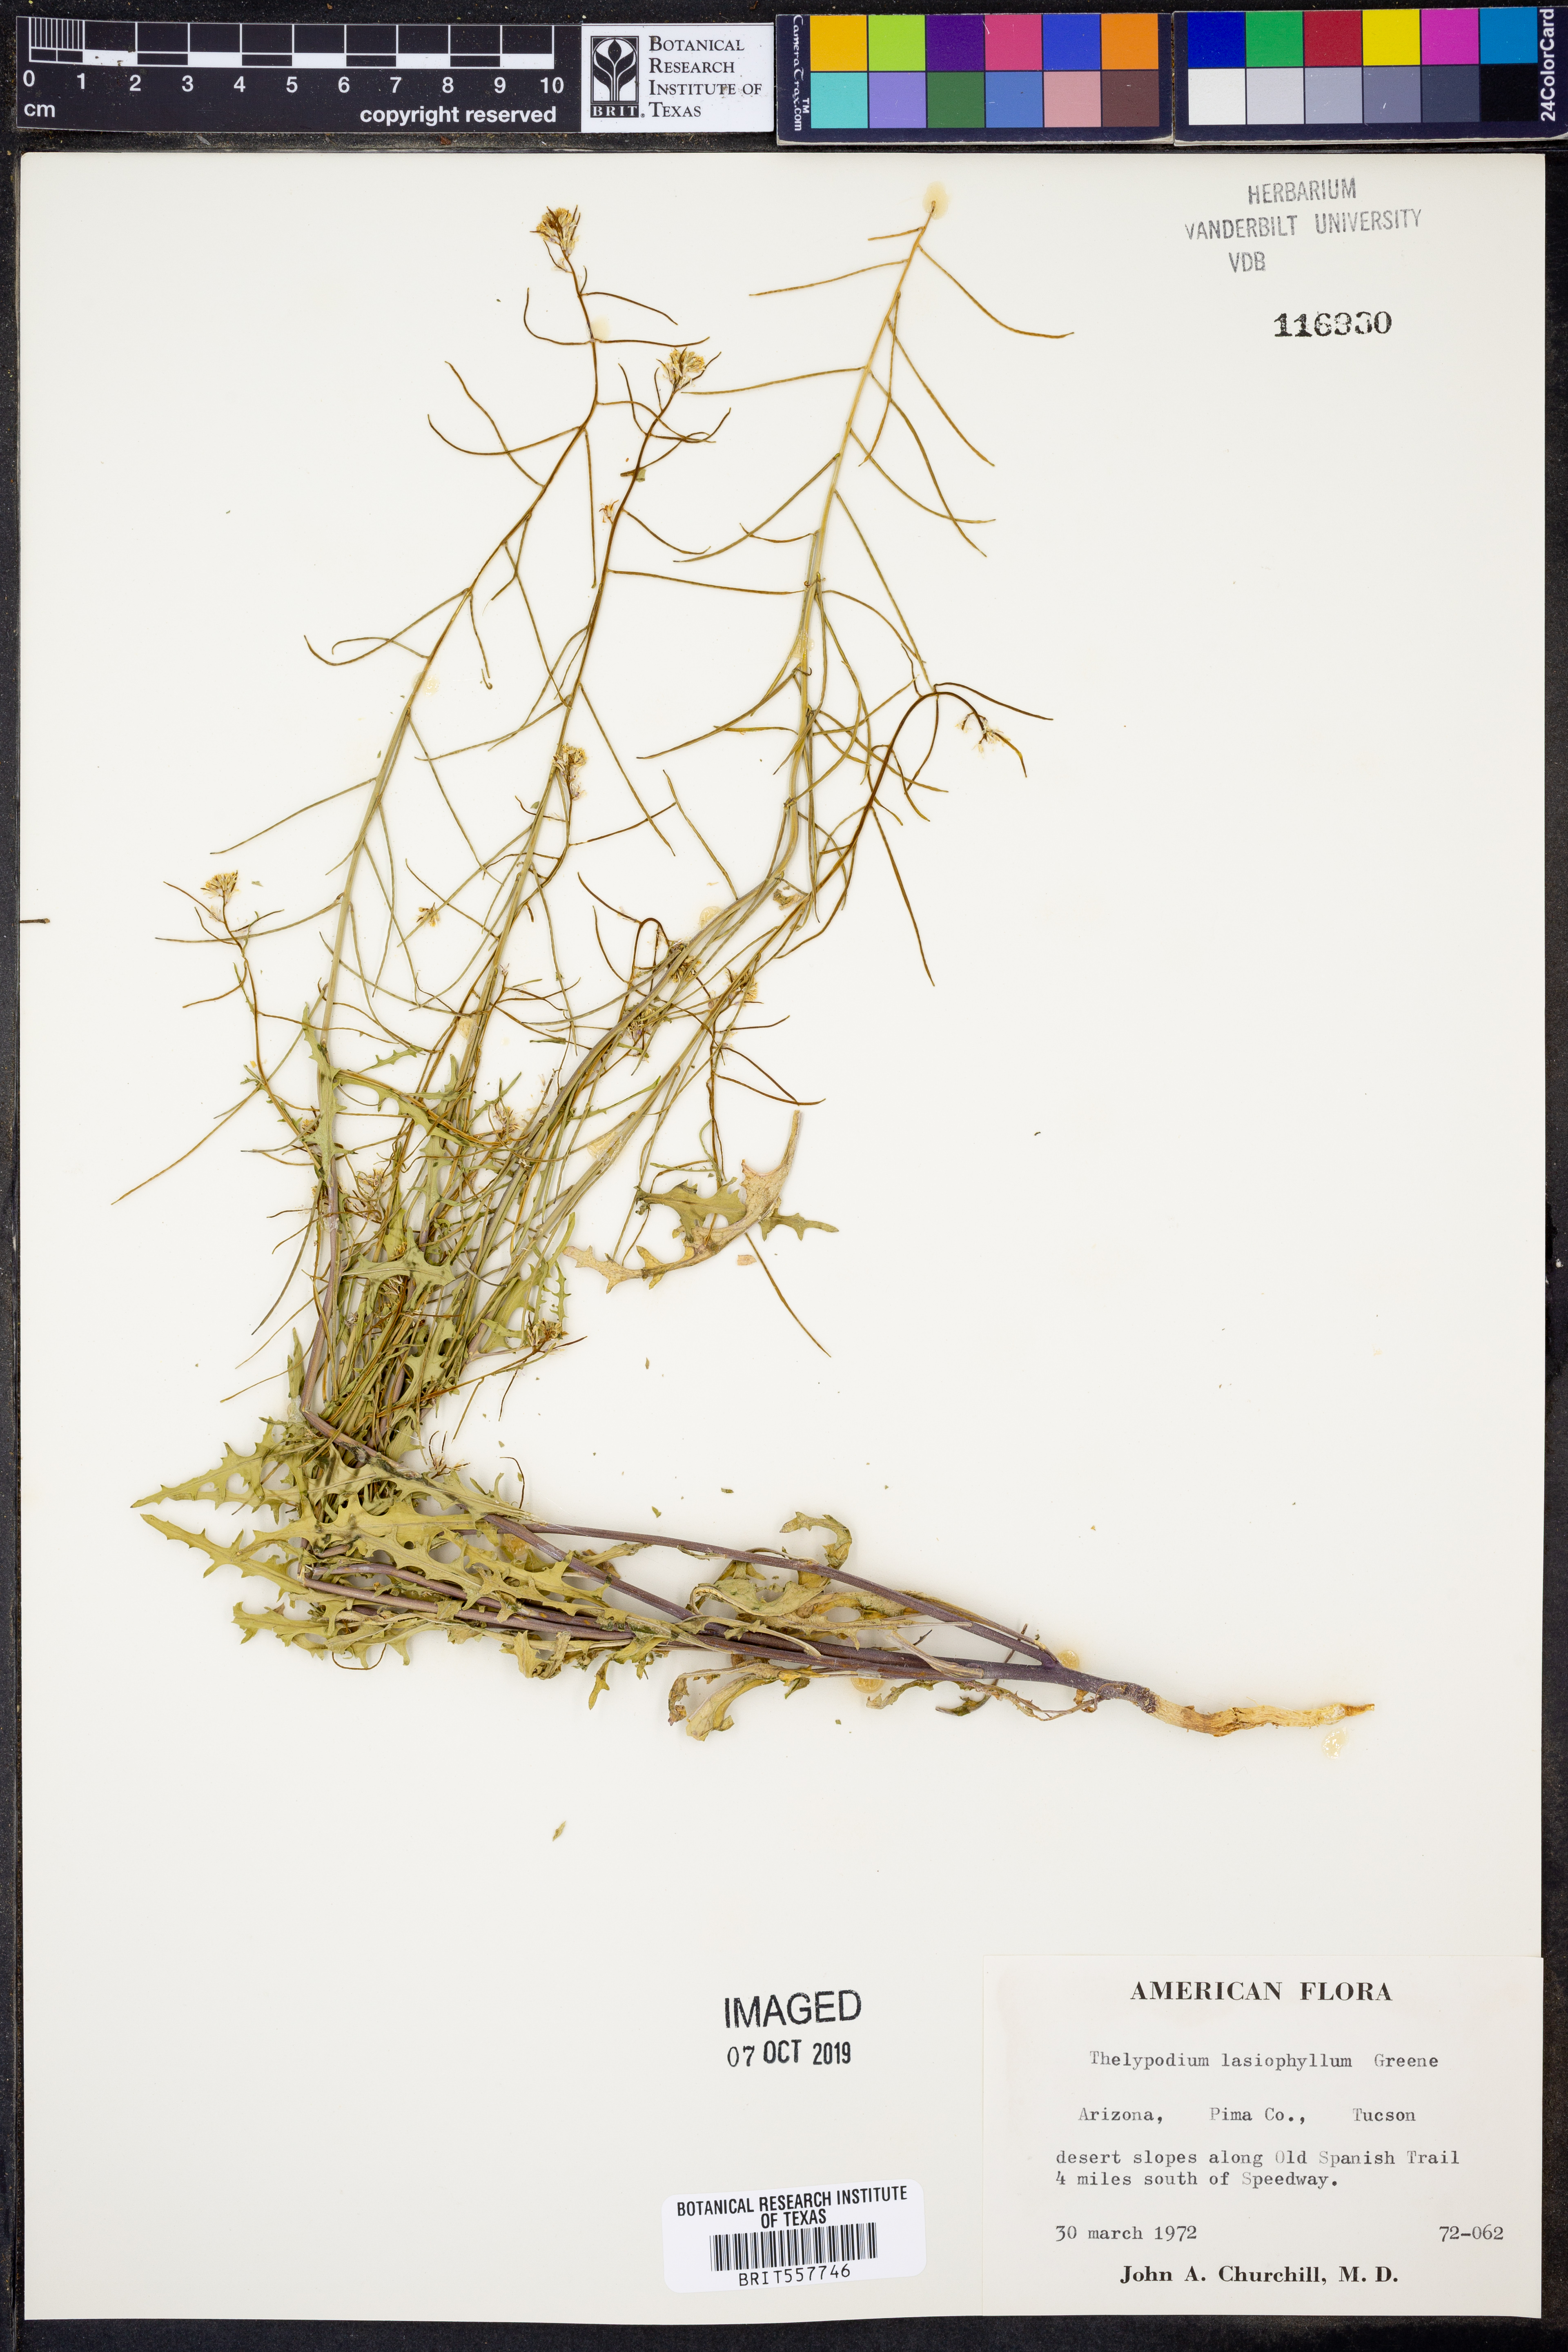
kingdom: Plantae
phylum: Tracheophyta
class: Magnoliopsida
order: Brassicales
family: Brassicaceae
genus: Streptanthus
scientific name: Streptanthus lasiophyllus
